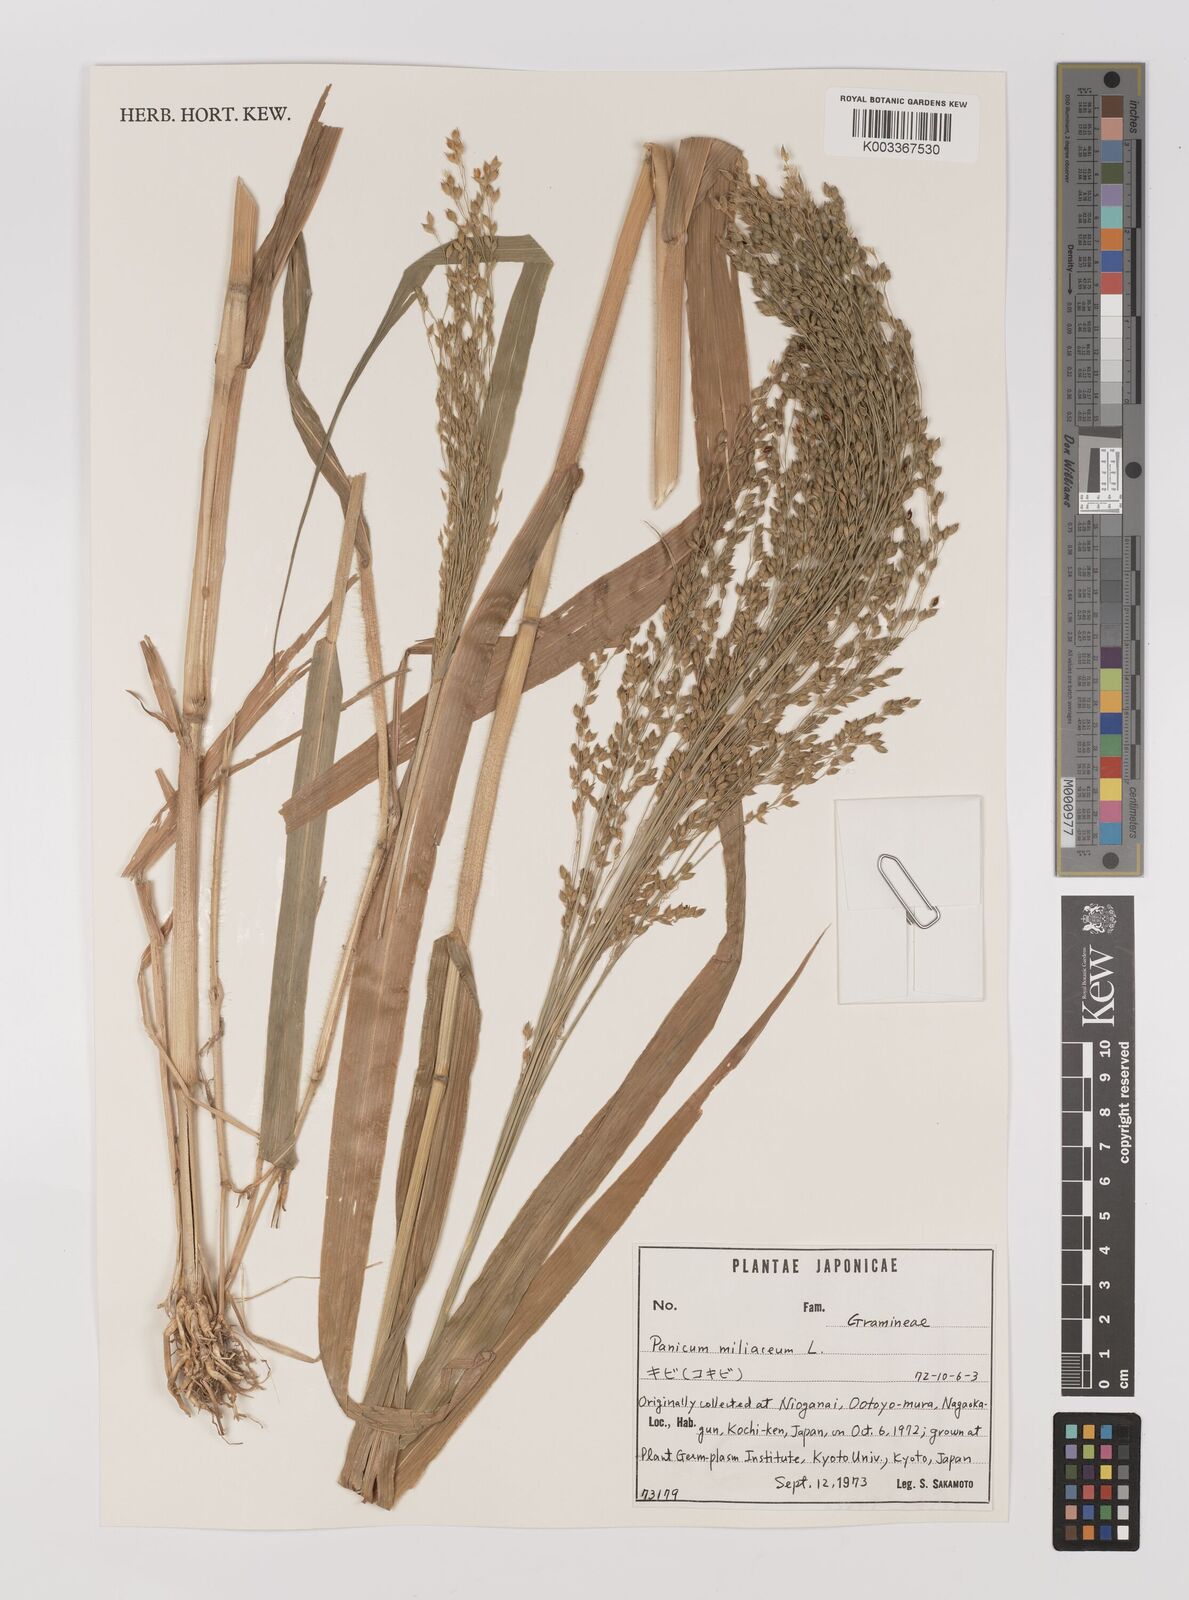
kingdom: Plantae
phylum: Tracheophyta
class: Liliopsida
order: Poales
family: Poaceae
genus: Panicum
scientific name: Panicum miliaceum
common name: Common millet
